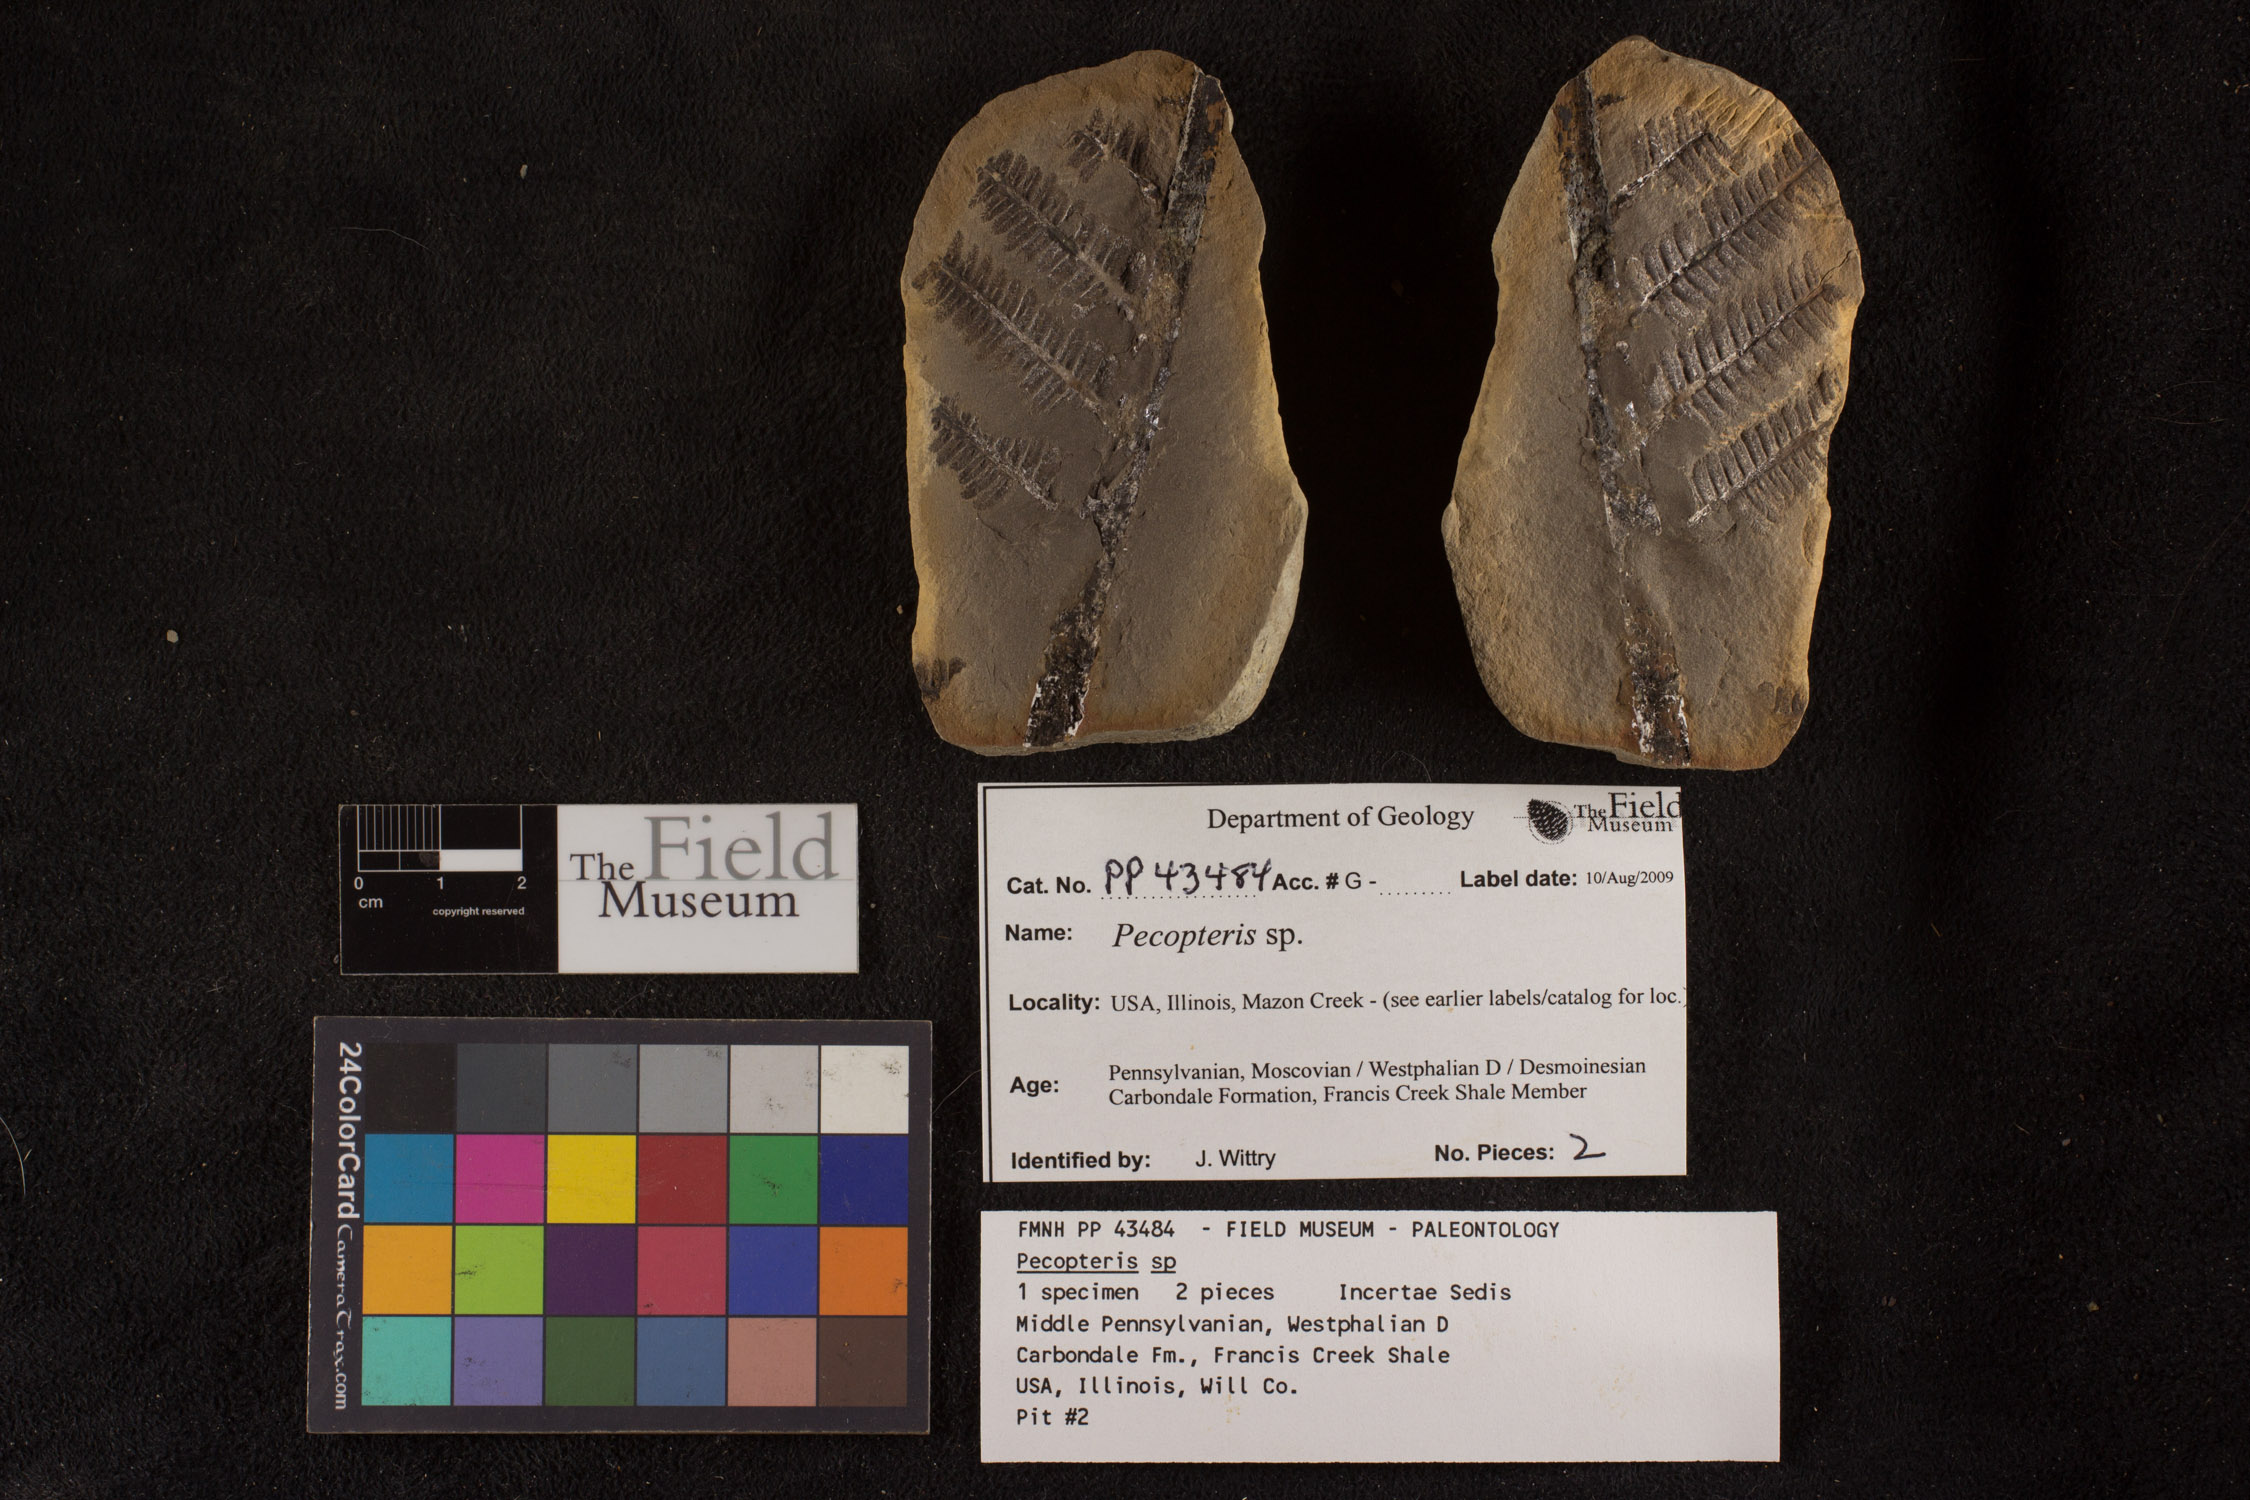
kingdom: Plantae
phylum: Tracheophyta
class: Polypodiopsida
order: Marattiales
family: Asterothecaceae
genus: Pecopteris
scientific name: Pecopteris
